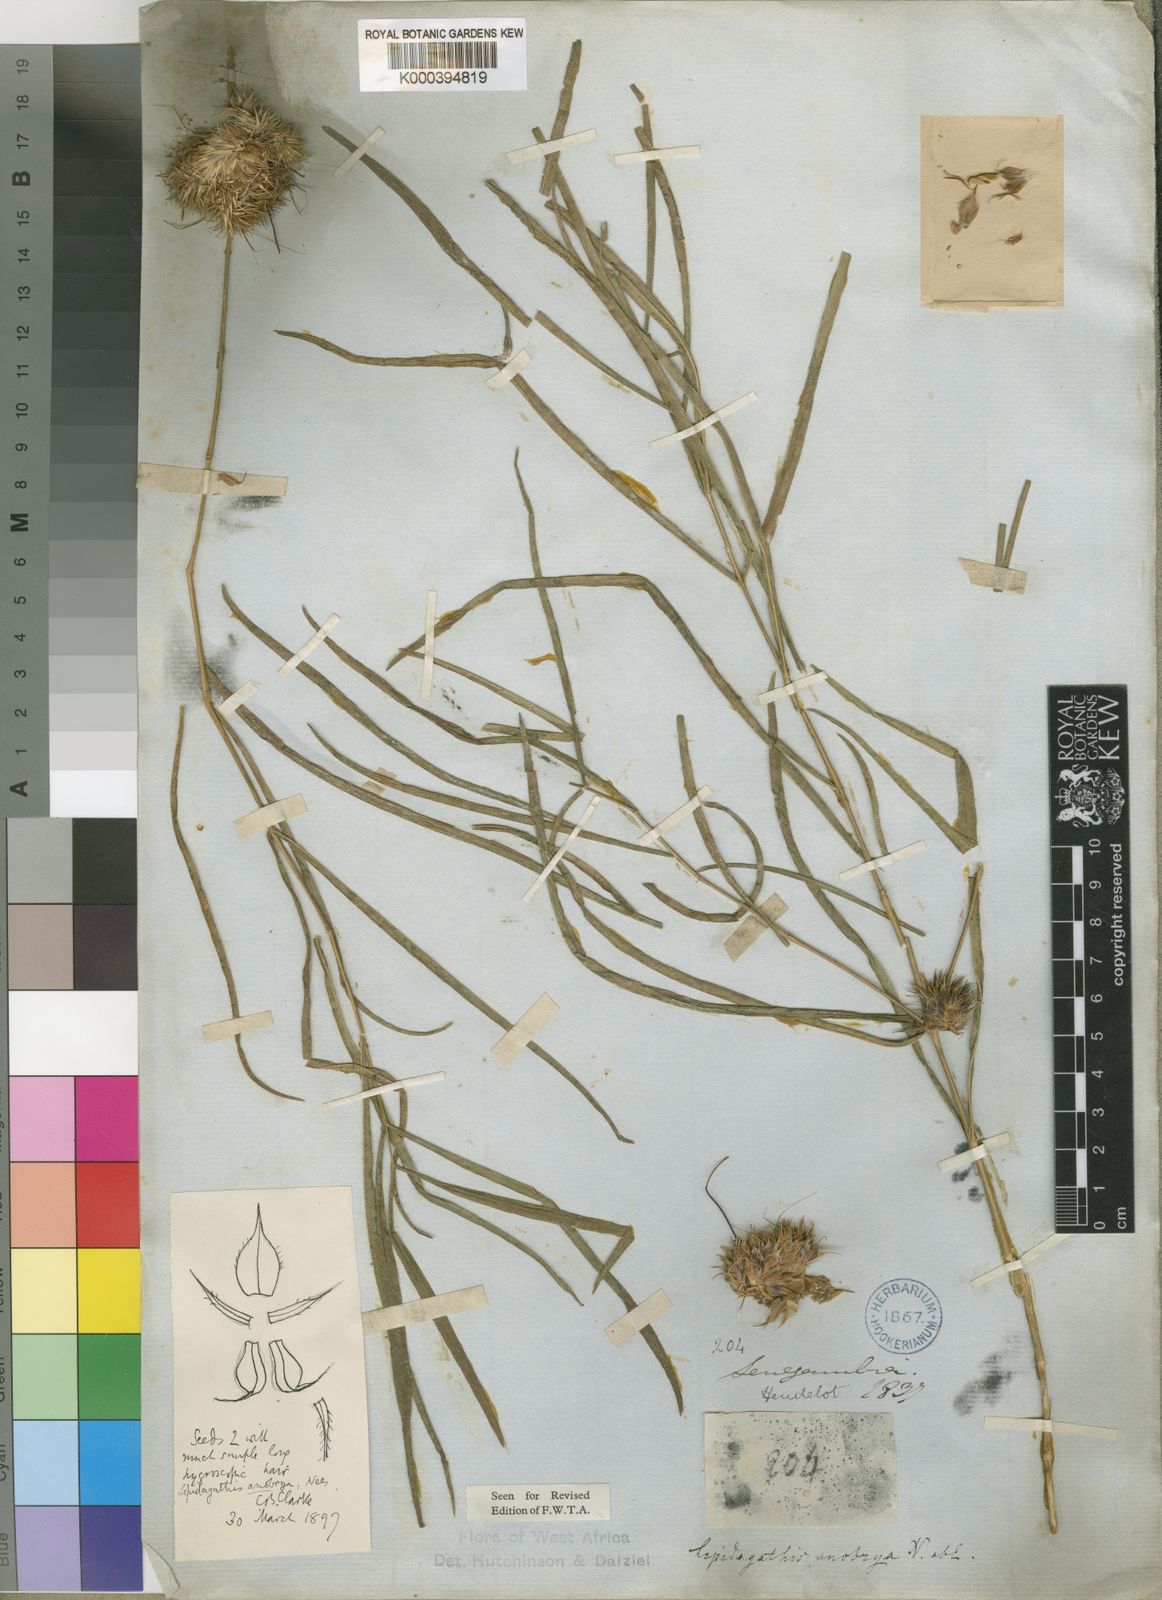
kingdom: Plantae
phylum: Tracheophyta
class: Magnoliopsida
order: Lamiales
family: Acanthaceae
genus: Lepidagathis
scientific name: Lepidagathis anobrya
